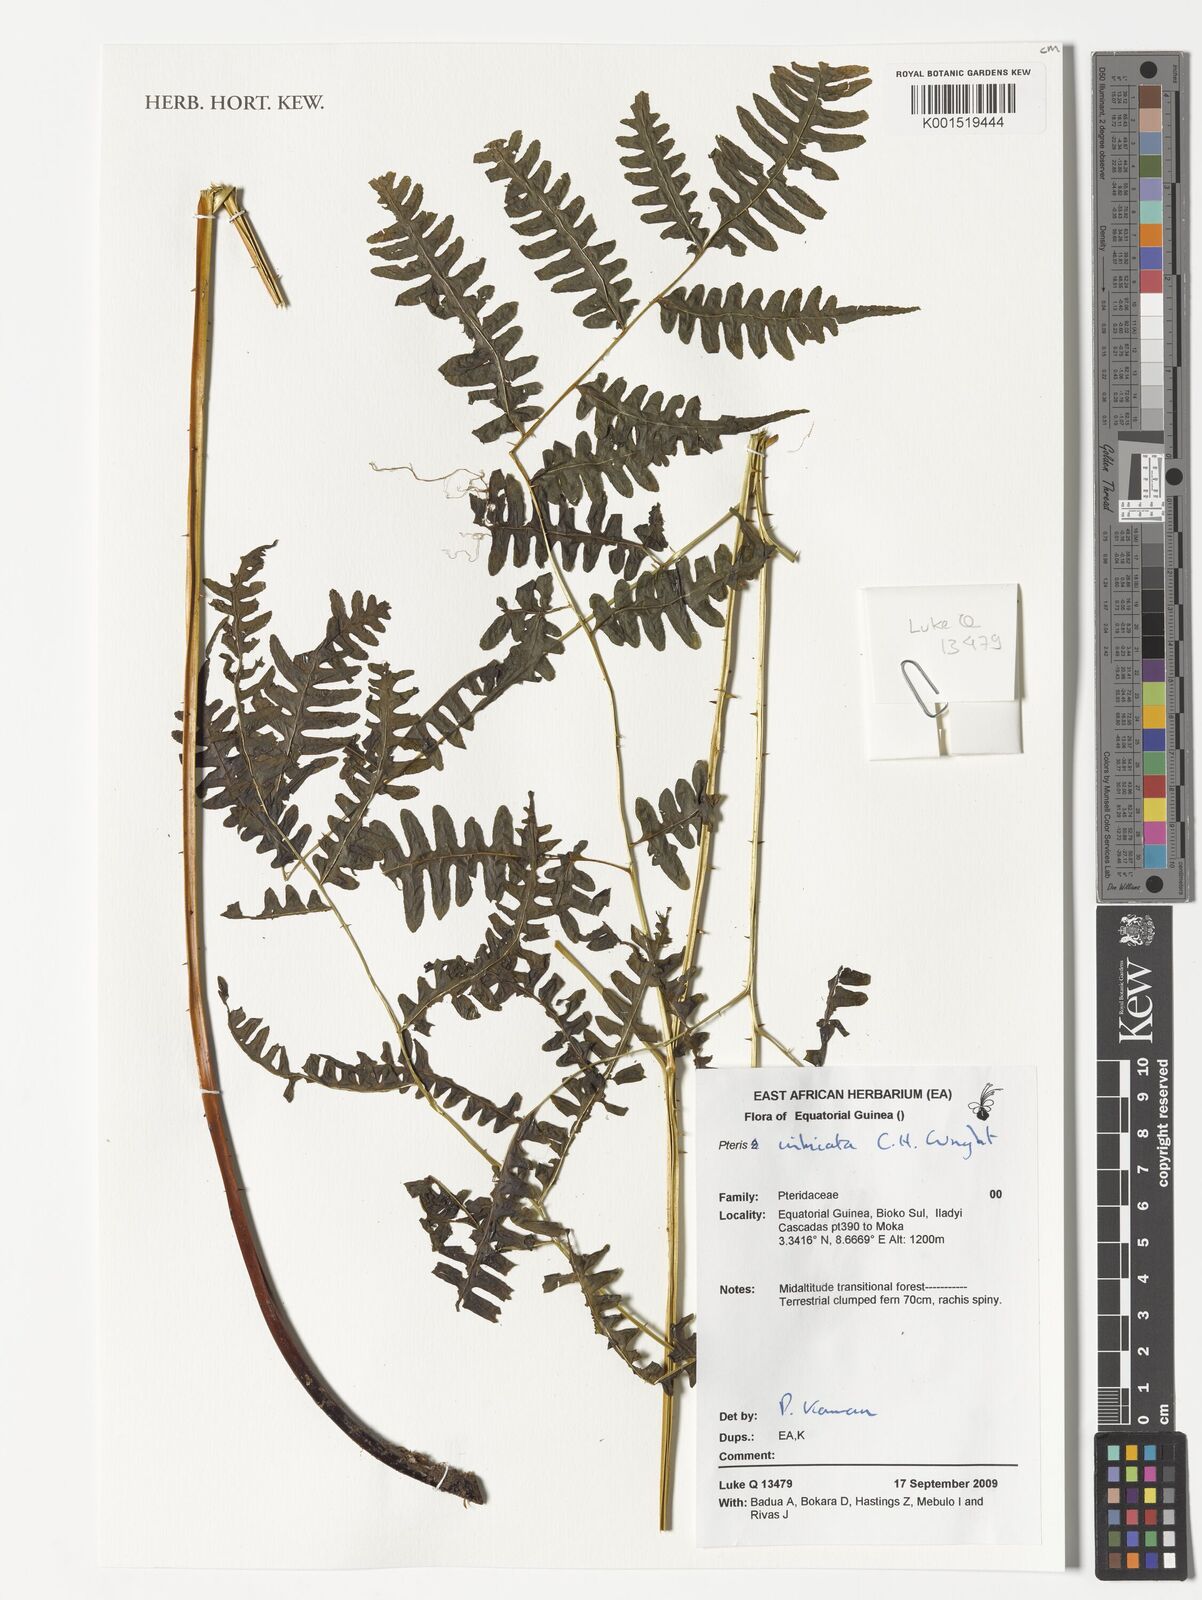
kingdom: Plantae
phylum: Tracheophyta
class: Polypodiopsida
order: Polypodiales
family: Pteridaceae
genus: Pteris
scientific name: Pteris intricata
